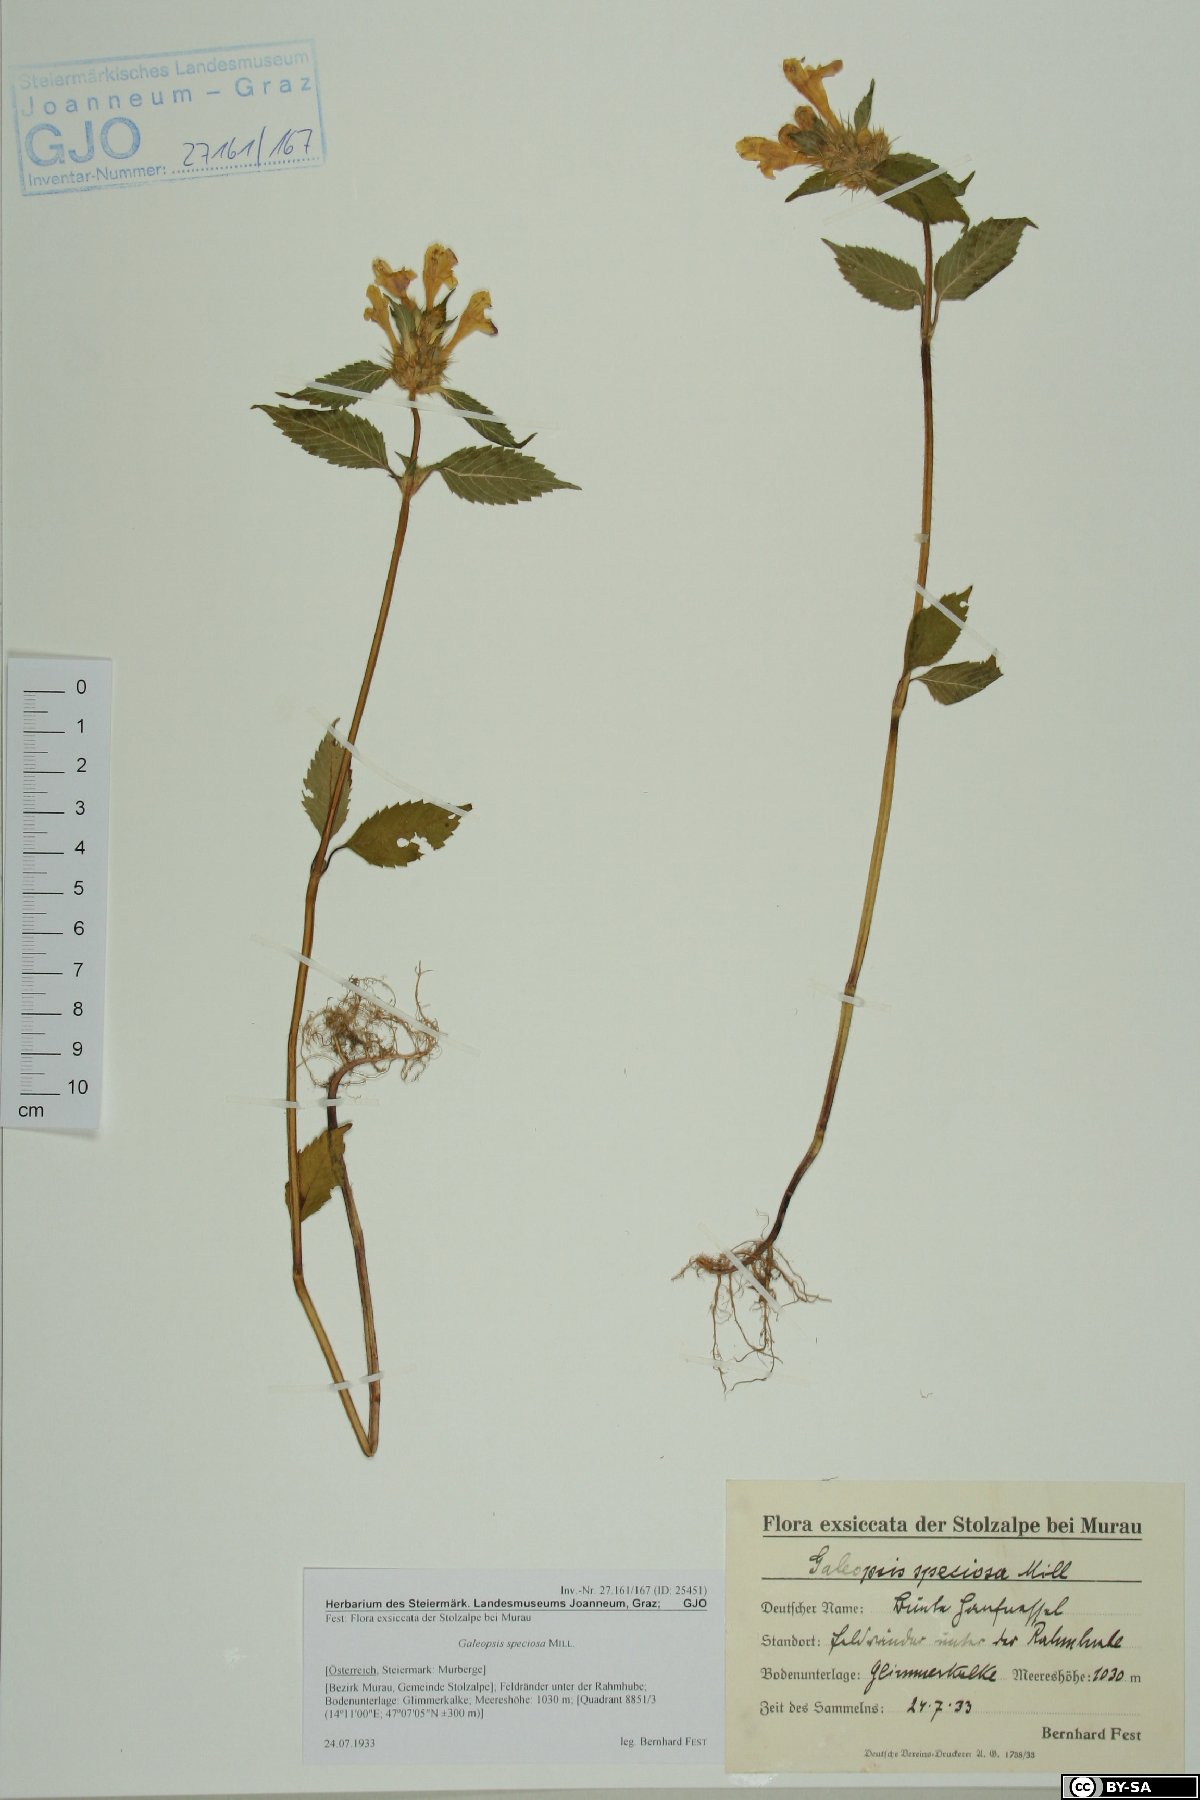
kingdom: Plantae
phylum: Tracheophyta
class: Magnoliopsida
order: Lamiales
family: Lamiaceae
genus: Galeopsis
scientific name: Galeopsis speciosa
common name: Large-flowered hemp-nettle
